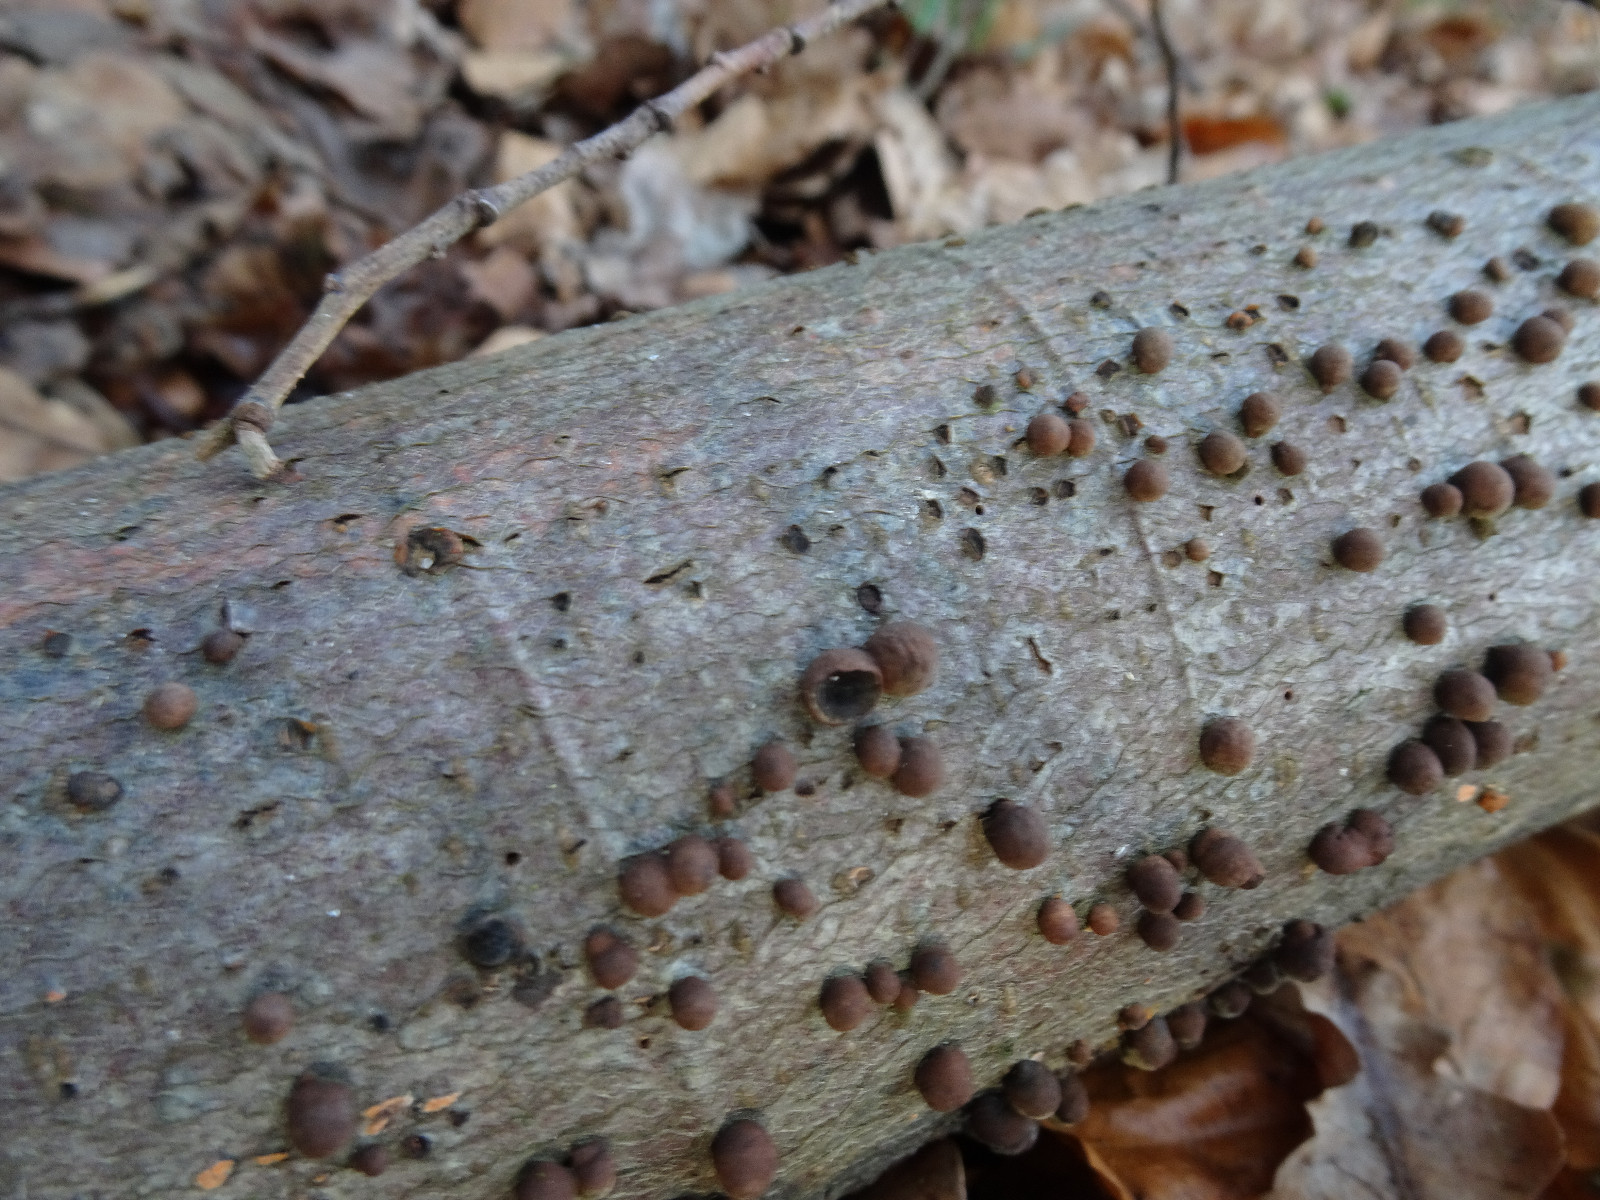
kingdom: Fungi
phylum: Ascomycota
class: Sordariomycetes
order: Xylariales
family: Hypoxylaceae
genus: Hypoxylon
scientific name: Hypoxylon
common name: kulbær
